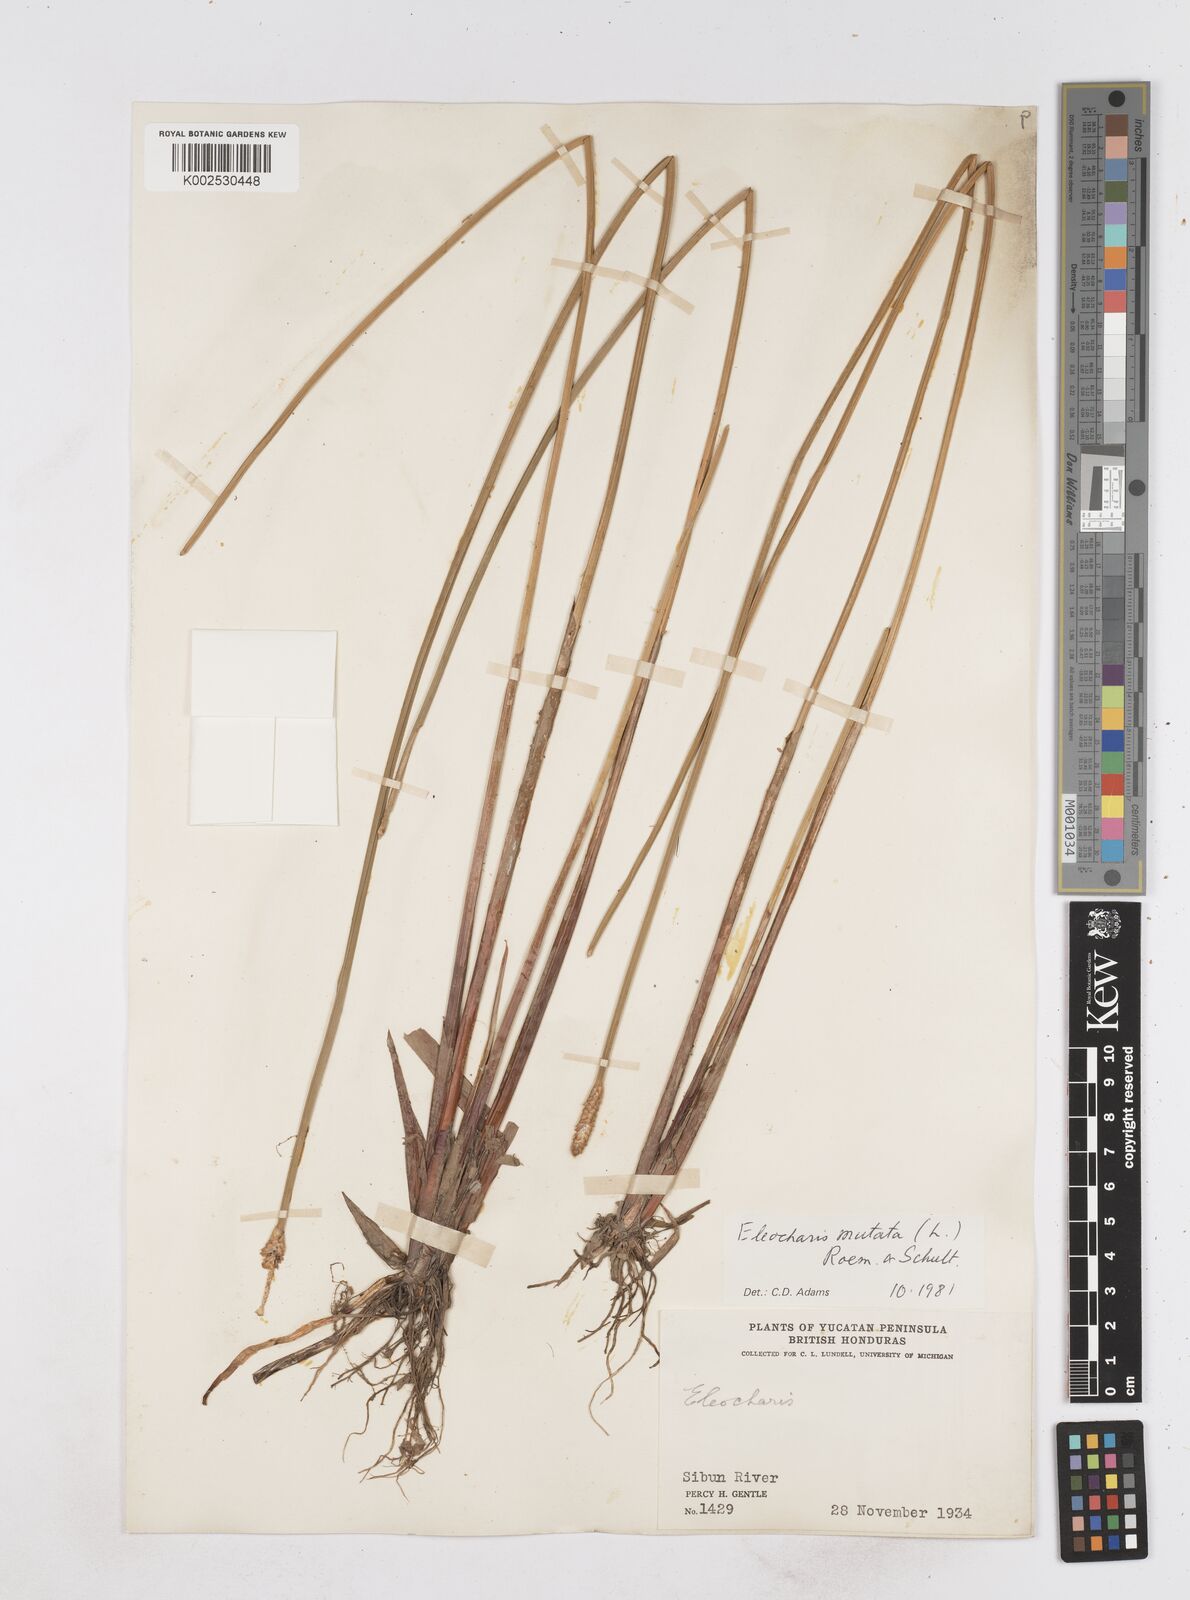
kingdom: Plantae
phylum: Tracheophyta
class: Liliopsida
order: Poales
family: Cyperaceae
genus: Eleocharis
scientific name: Eleocharis mutata
